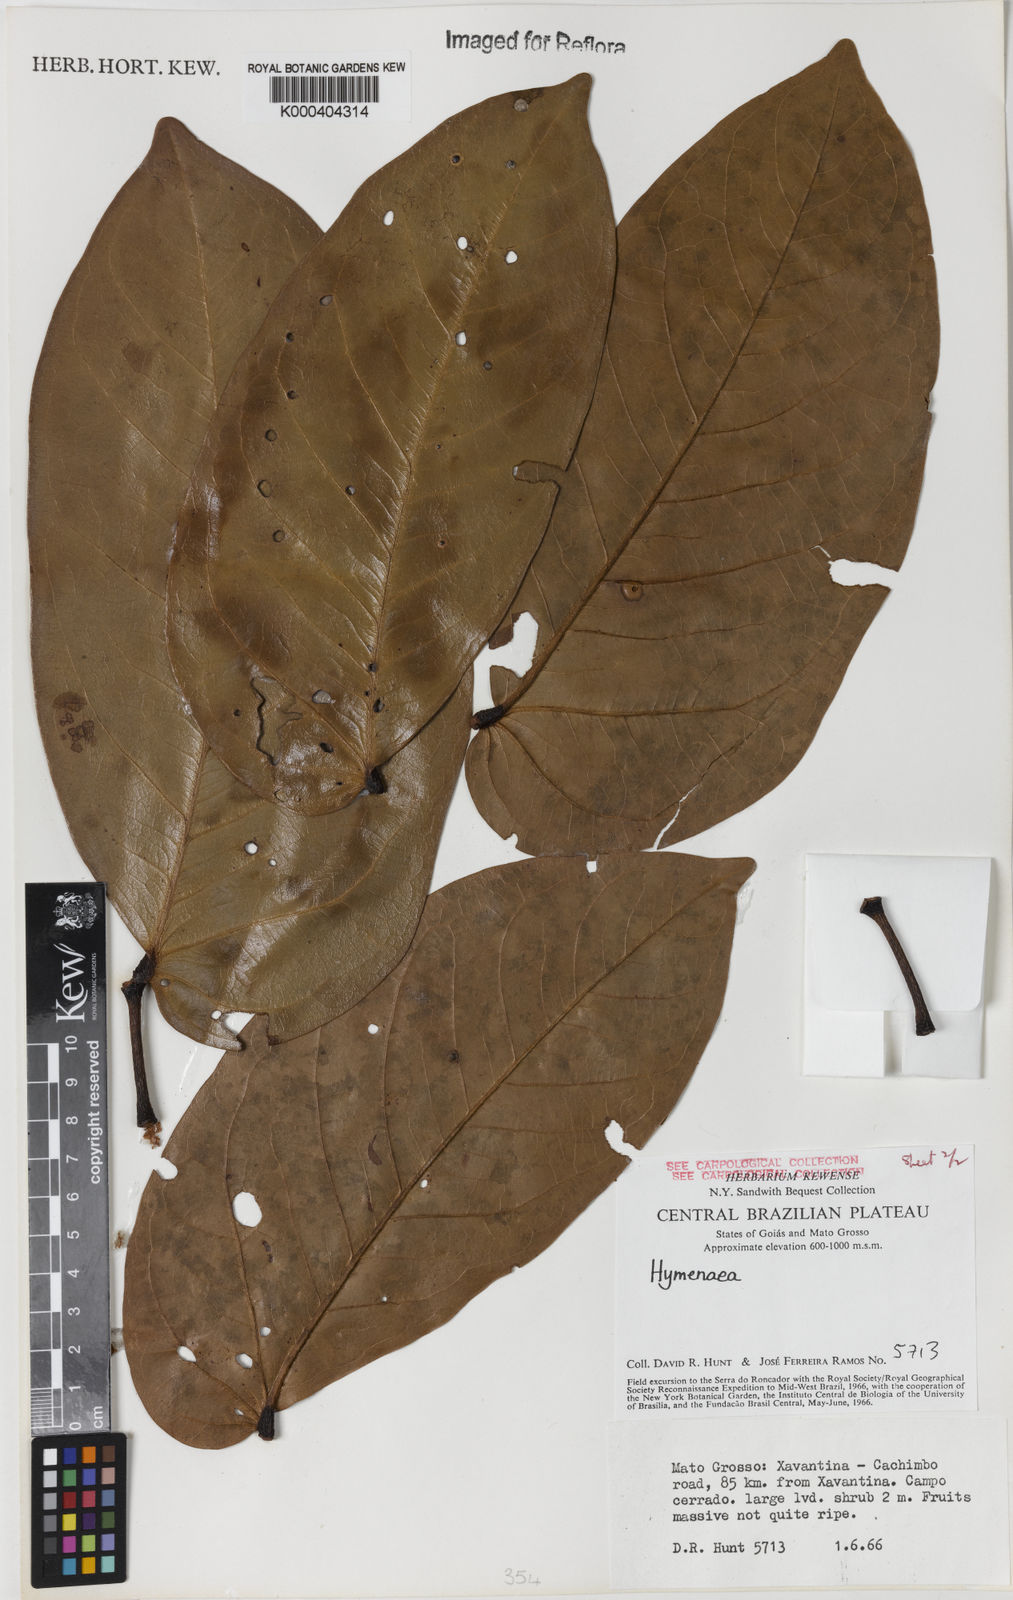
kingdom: Plantae
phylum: Tracheophyta
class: Magnoliopsida
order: Fabales
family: Fabaceae
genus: Hymenaea
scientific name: Hymenaea
